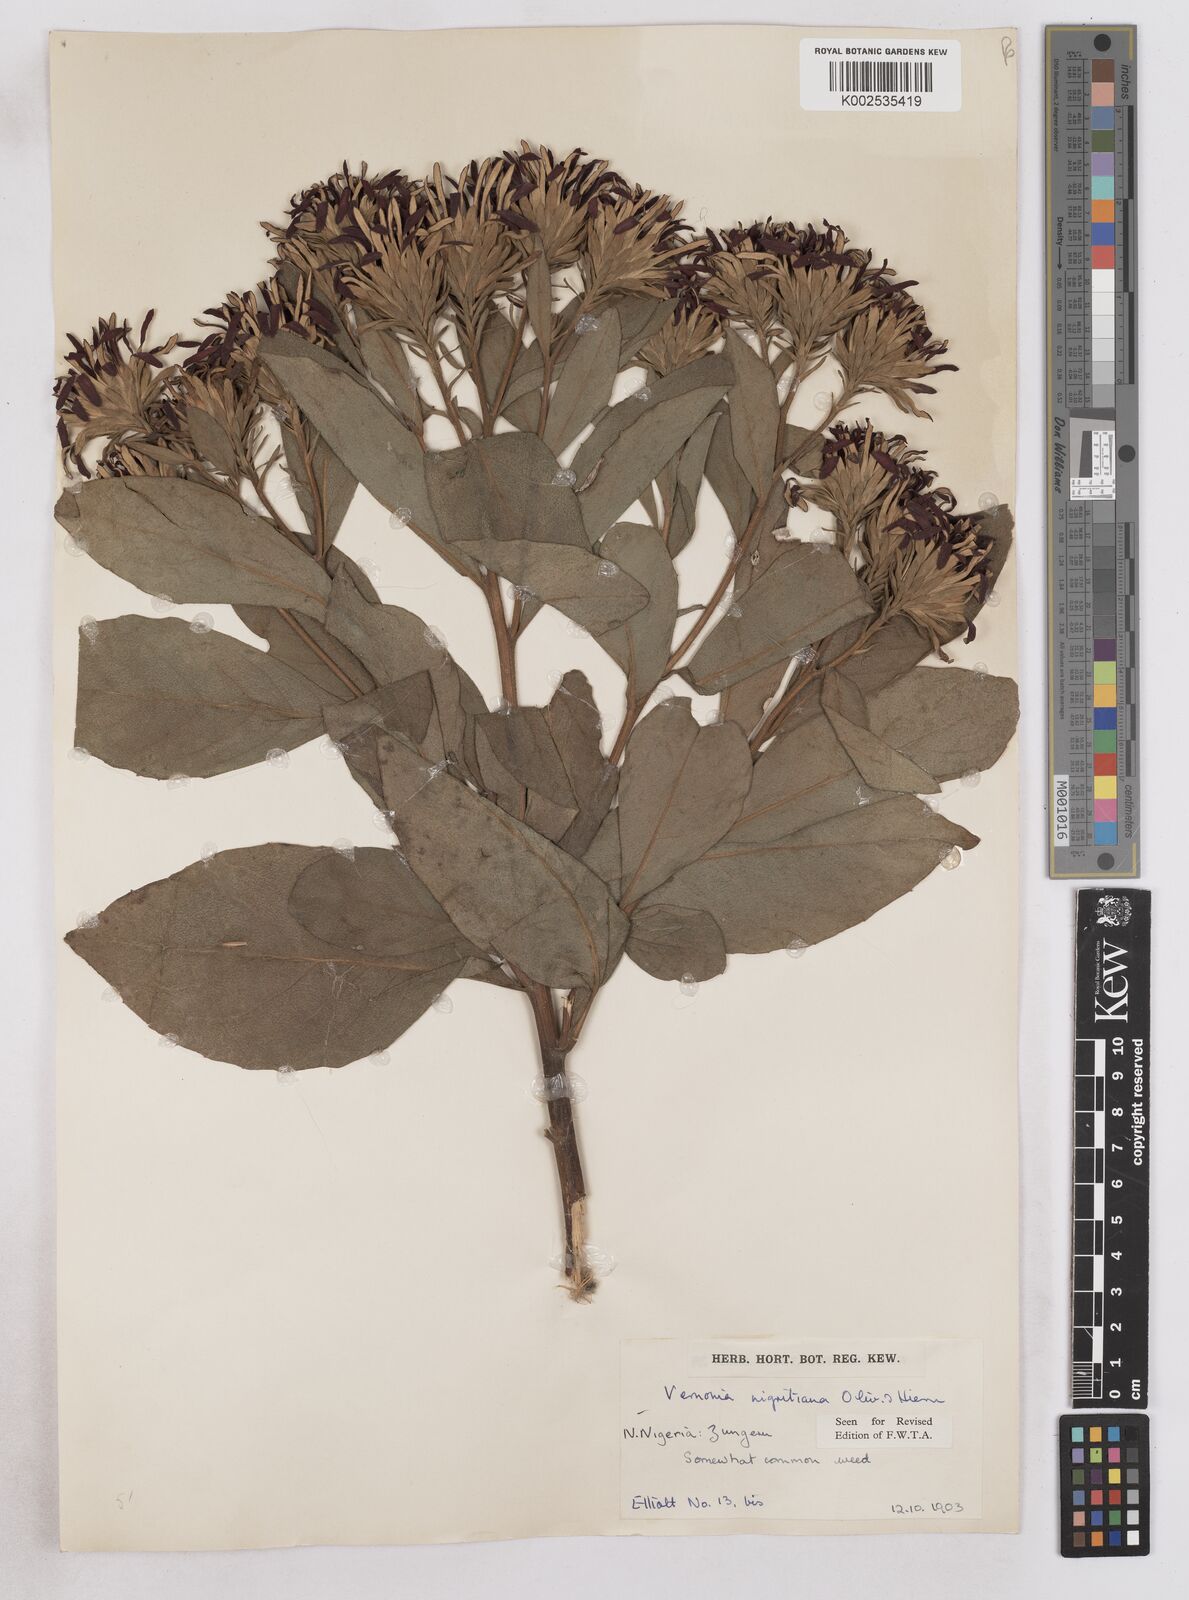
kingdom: Plantae
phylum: Tracheophyta
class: Magnoliopsida
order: Asterales
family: Asteraceae
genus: Linzia
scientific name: Linzia nigritiana
